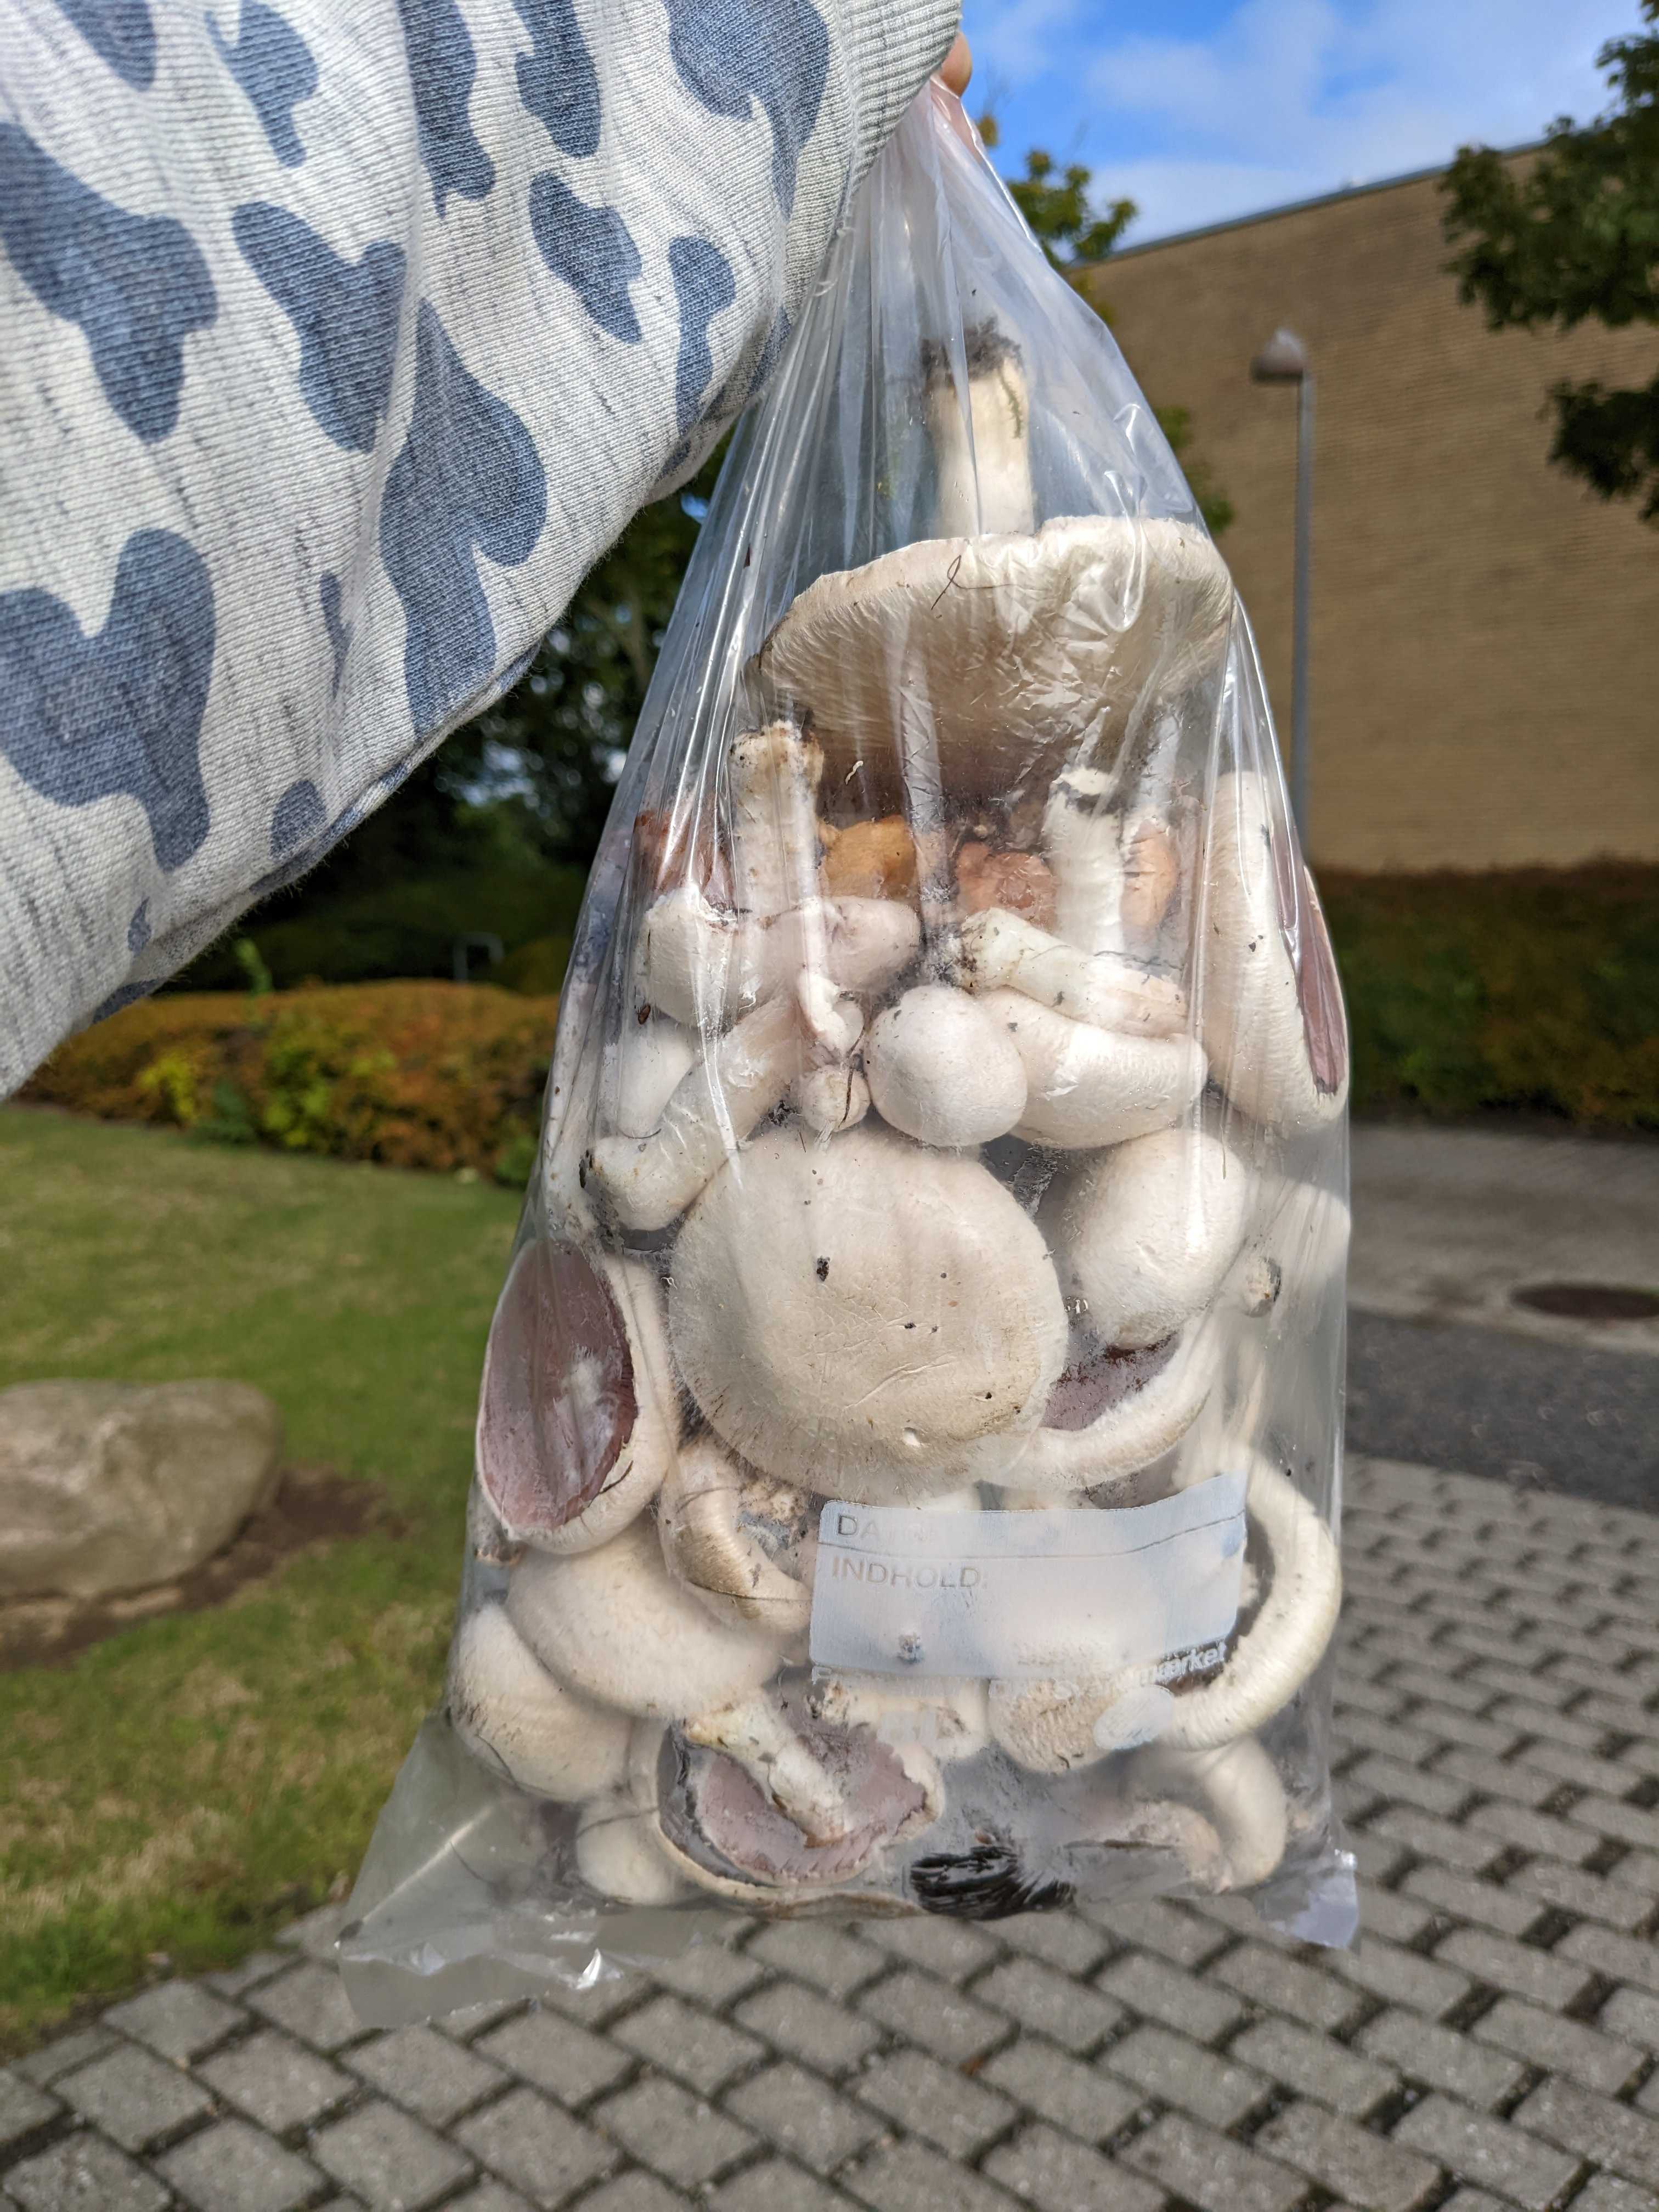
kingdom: Fungi
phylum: Basidiomycota
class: Agaricomycetes
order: Agaricales
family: Agaricaceae
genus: Agaricus
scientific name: Agaricus
